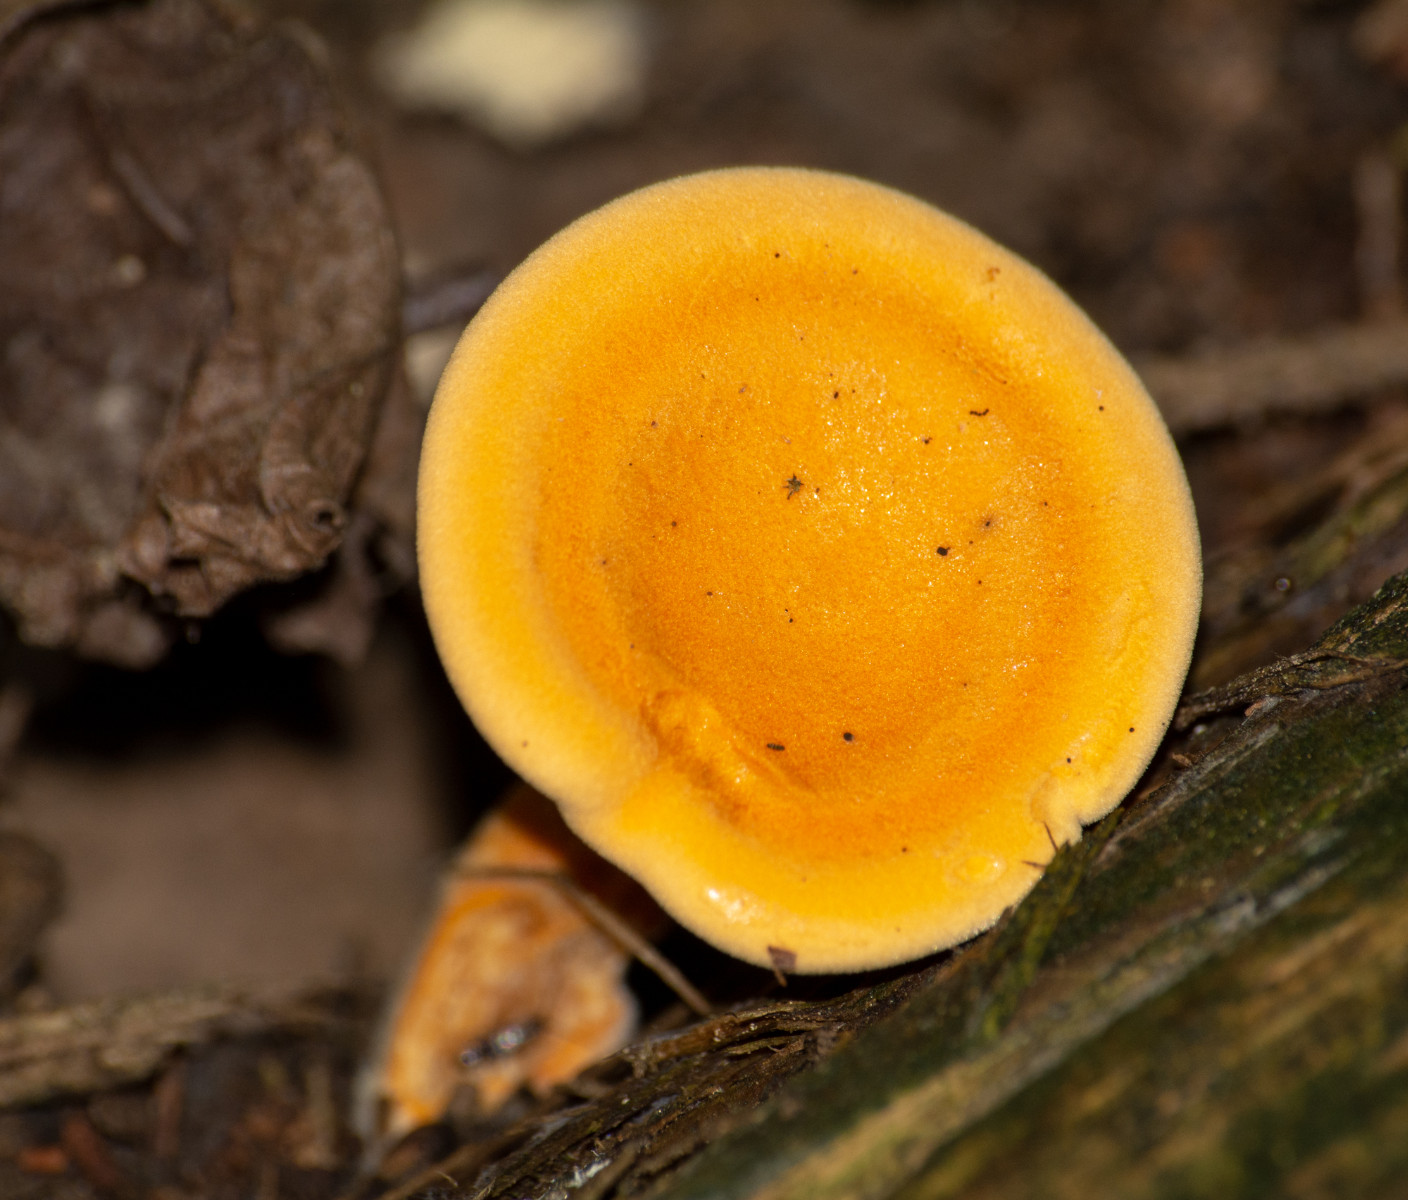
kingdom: Fungi
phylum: Basidiomycota
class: Agaricomycetes
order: Boletales
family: Hygrophoropsidaceae
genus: Hygrophoropsis
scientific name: Hygrophoropsis aurantiaca
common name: almindelig orangekantarel
